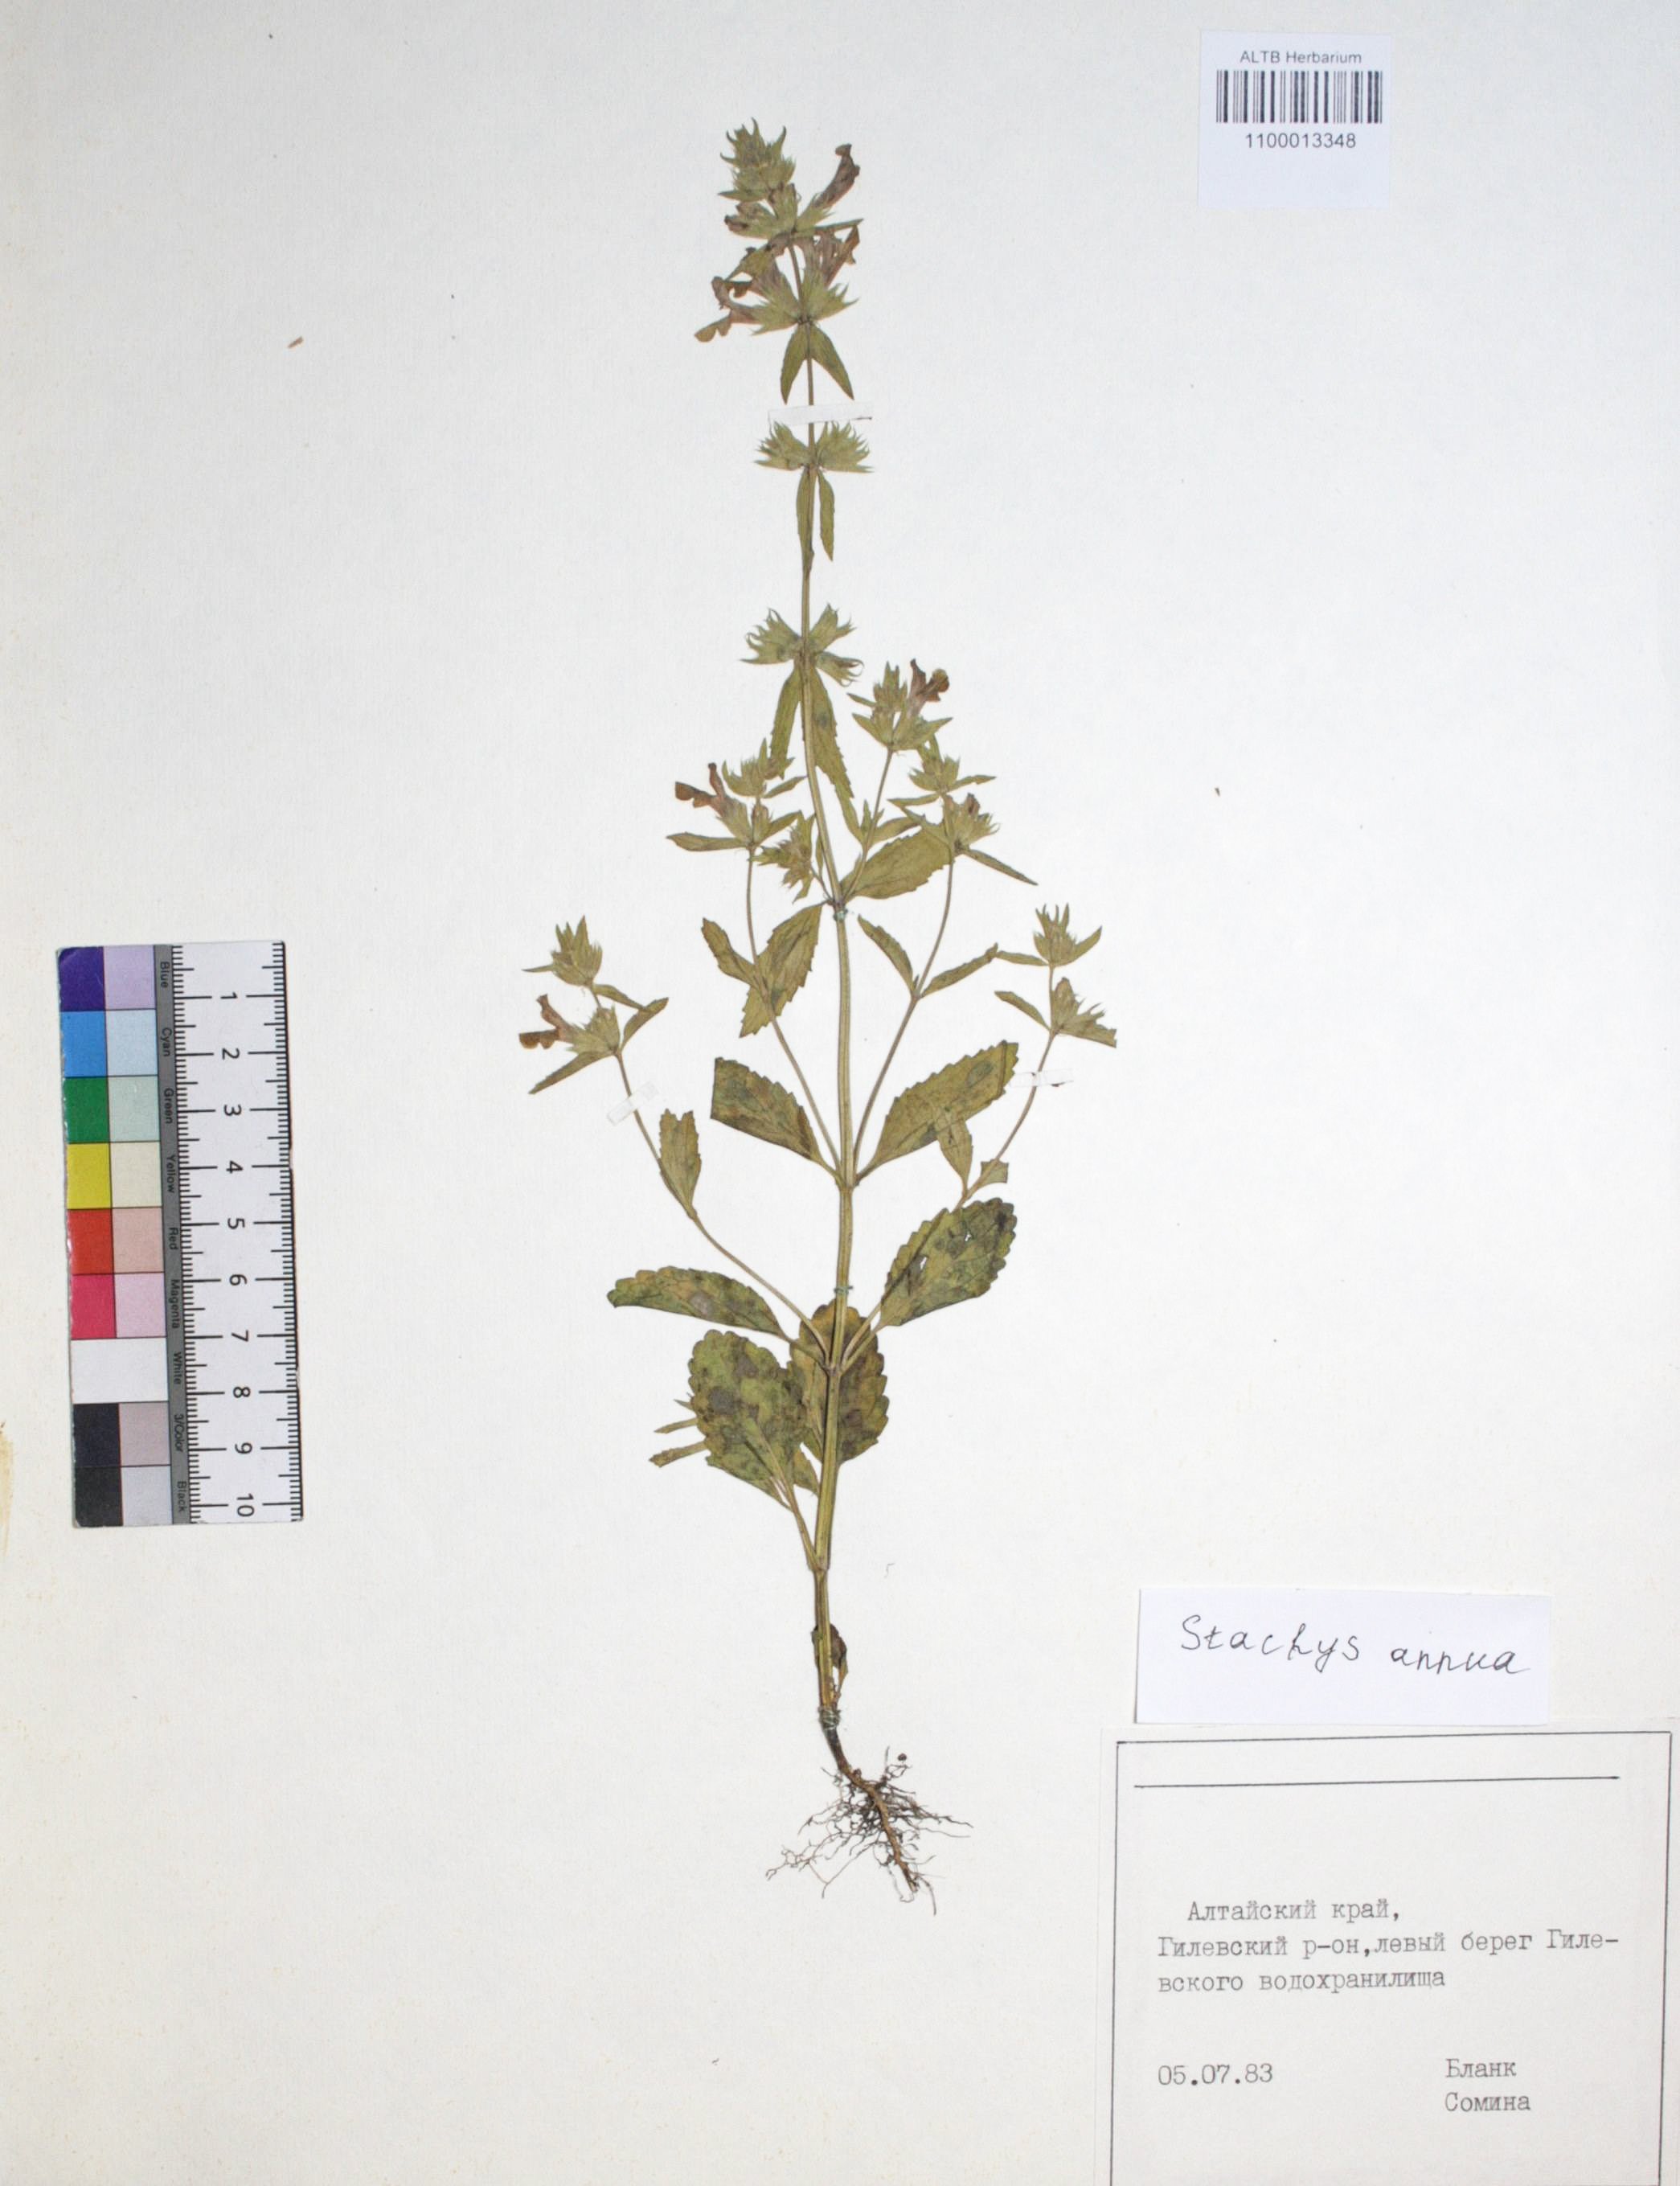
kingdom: Plantae
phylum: Tracheophyta
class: Magnoliopsida
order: Lamiales
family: Lamiaceae
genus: Stachys
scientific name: Stachys annua
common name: Annual yellow-woundwort
